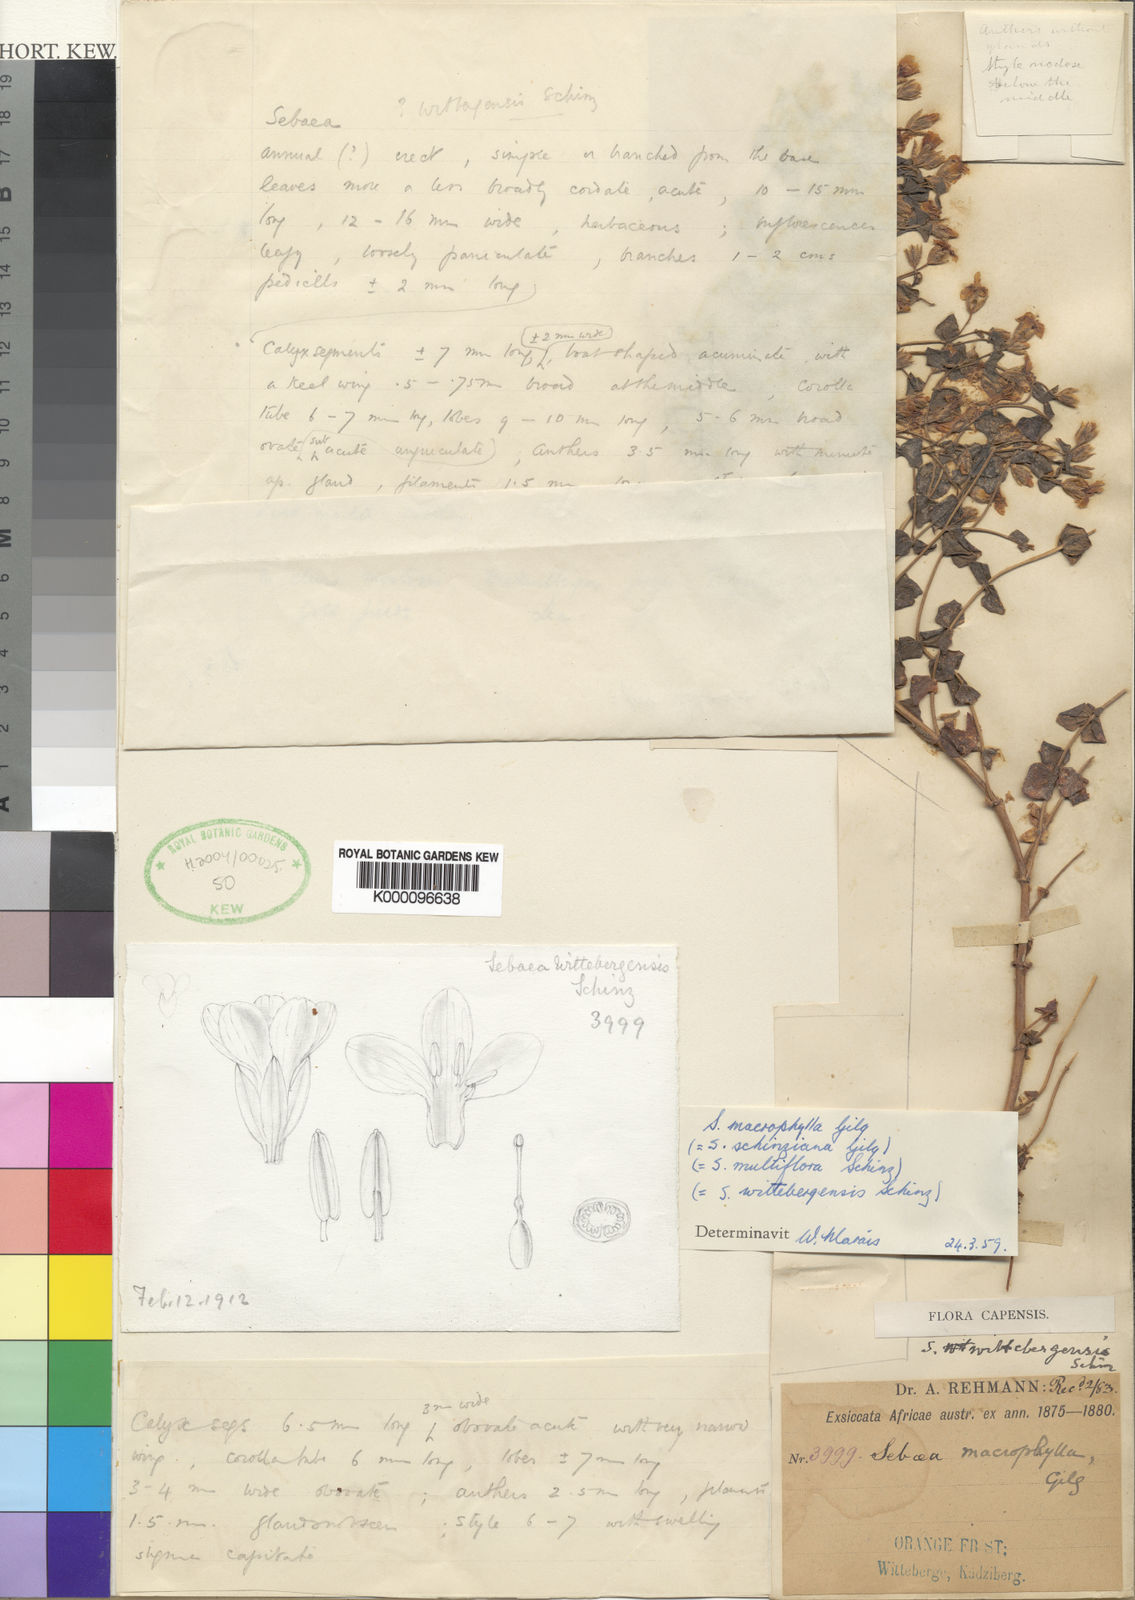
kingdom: Plantae
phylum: Tracheophyta
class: Magnoliopsida
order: Gentianales
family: Gentianaceae
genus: Sebaea
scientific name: Sebaea macrophylla
